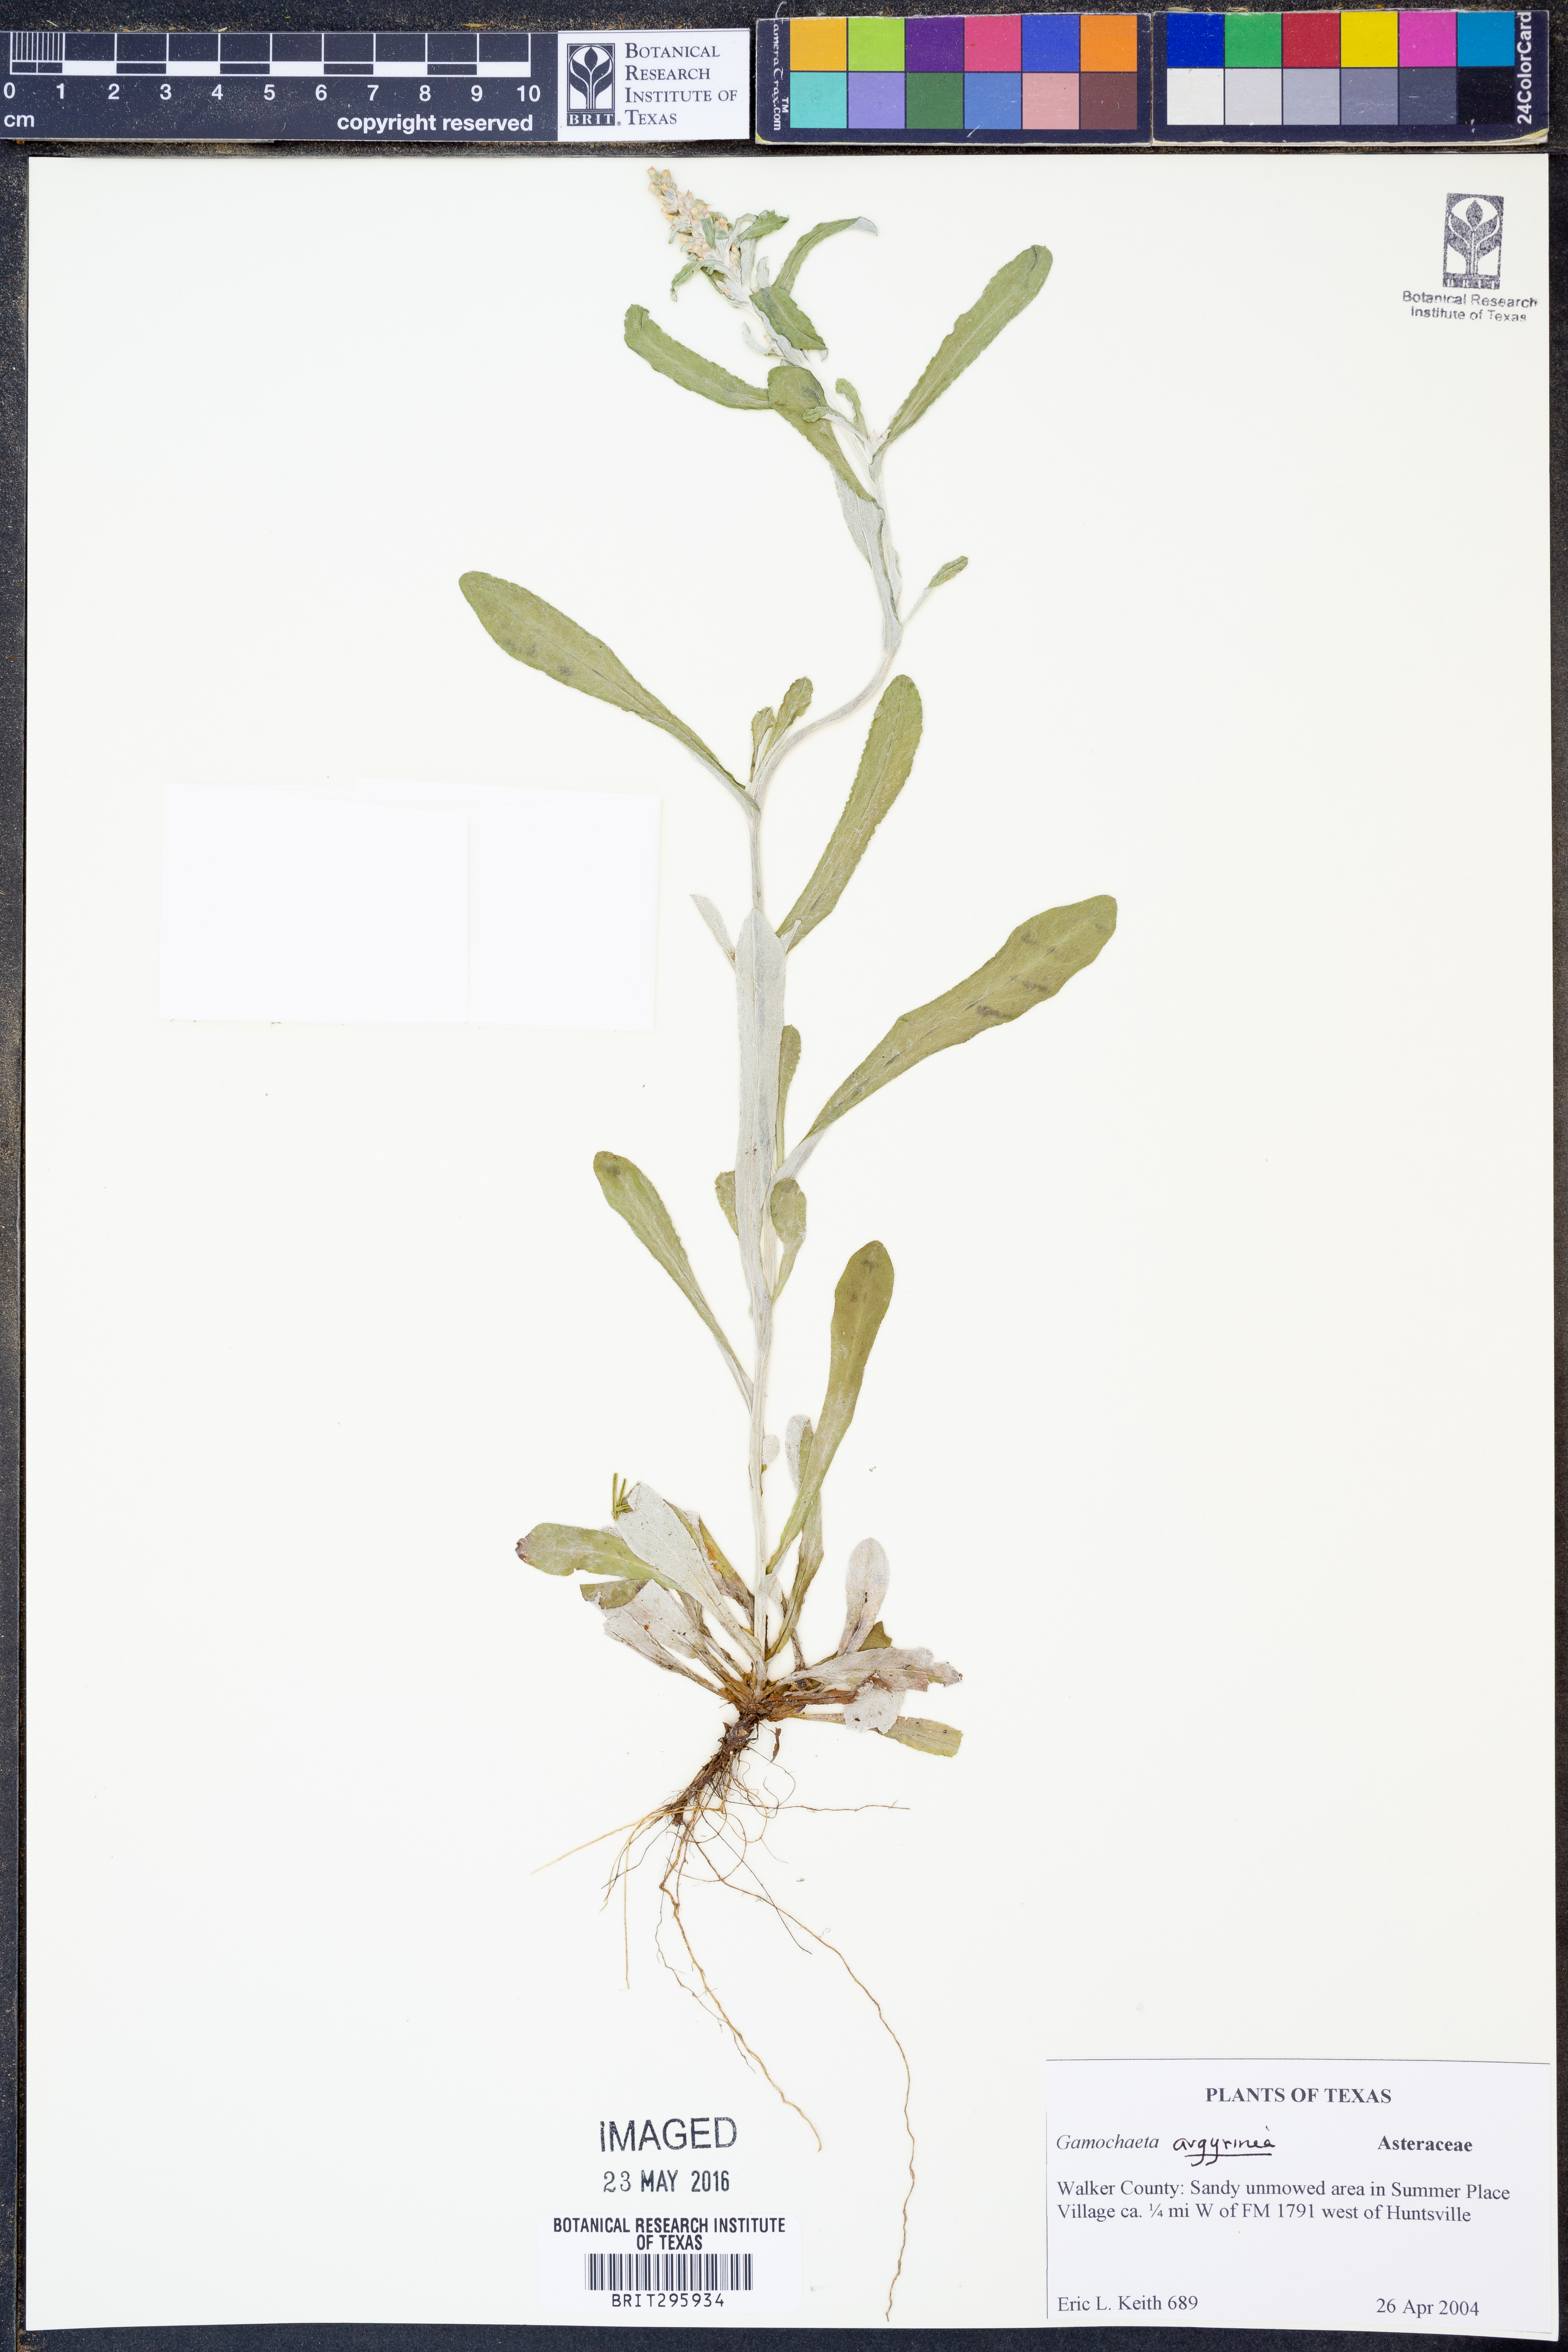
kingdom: Plantae
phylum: Tracheophyta
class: Magnoliopsida
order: Asterales
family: Asteraceae
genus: Gamochaeta
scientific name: Gamochaeta argyrinea
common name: Silvery cudweed
